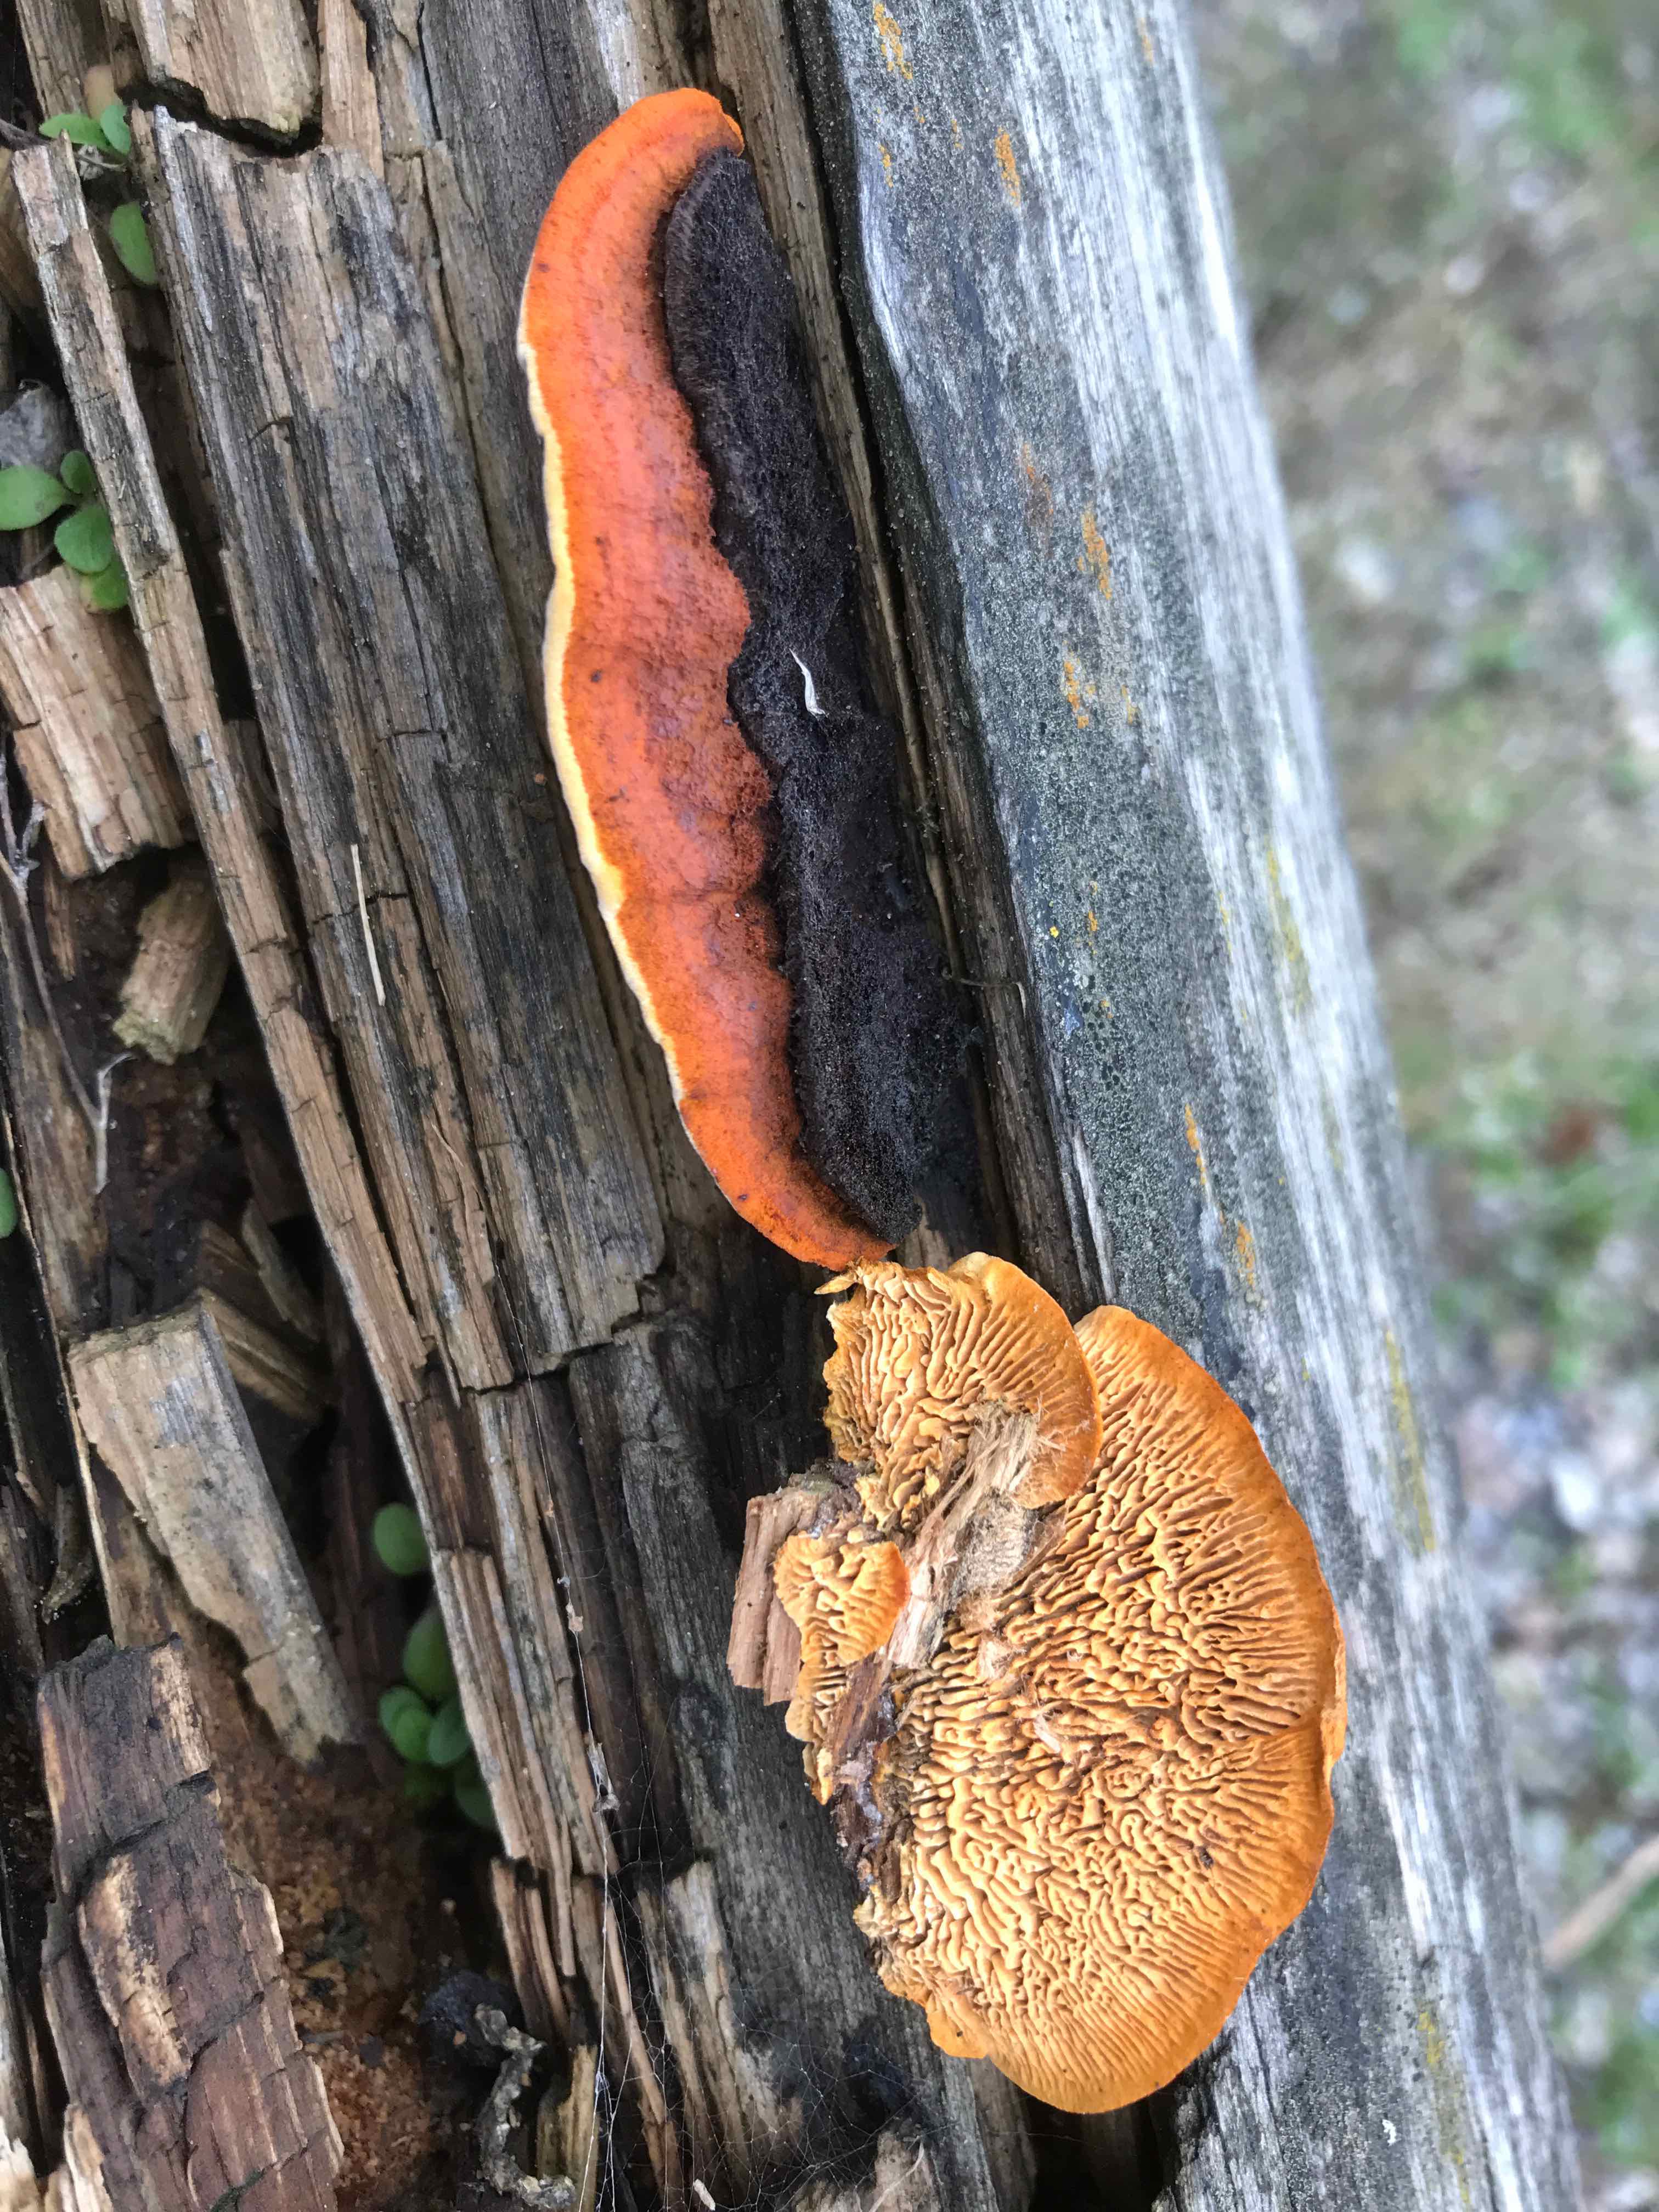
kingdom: Fungi
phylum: Basidiomycota
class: Agaricomycetes
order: Gloeophyllales
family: Gloeophyllaceae
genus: Gloeophyllum
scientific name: Gloeophyllum sepiarium
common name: fyrre-korkhat
